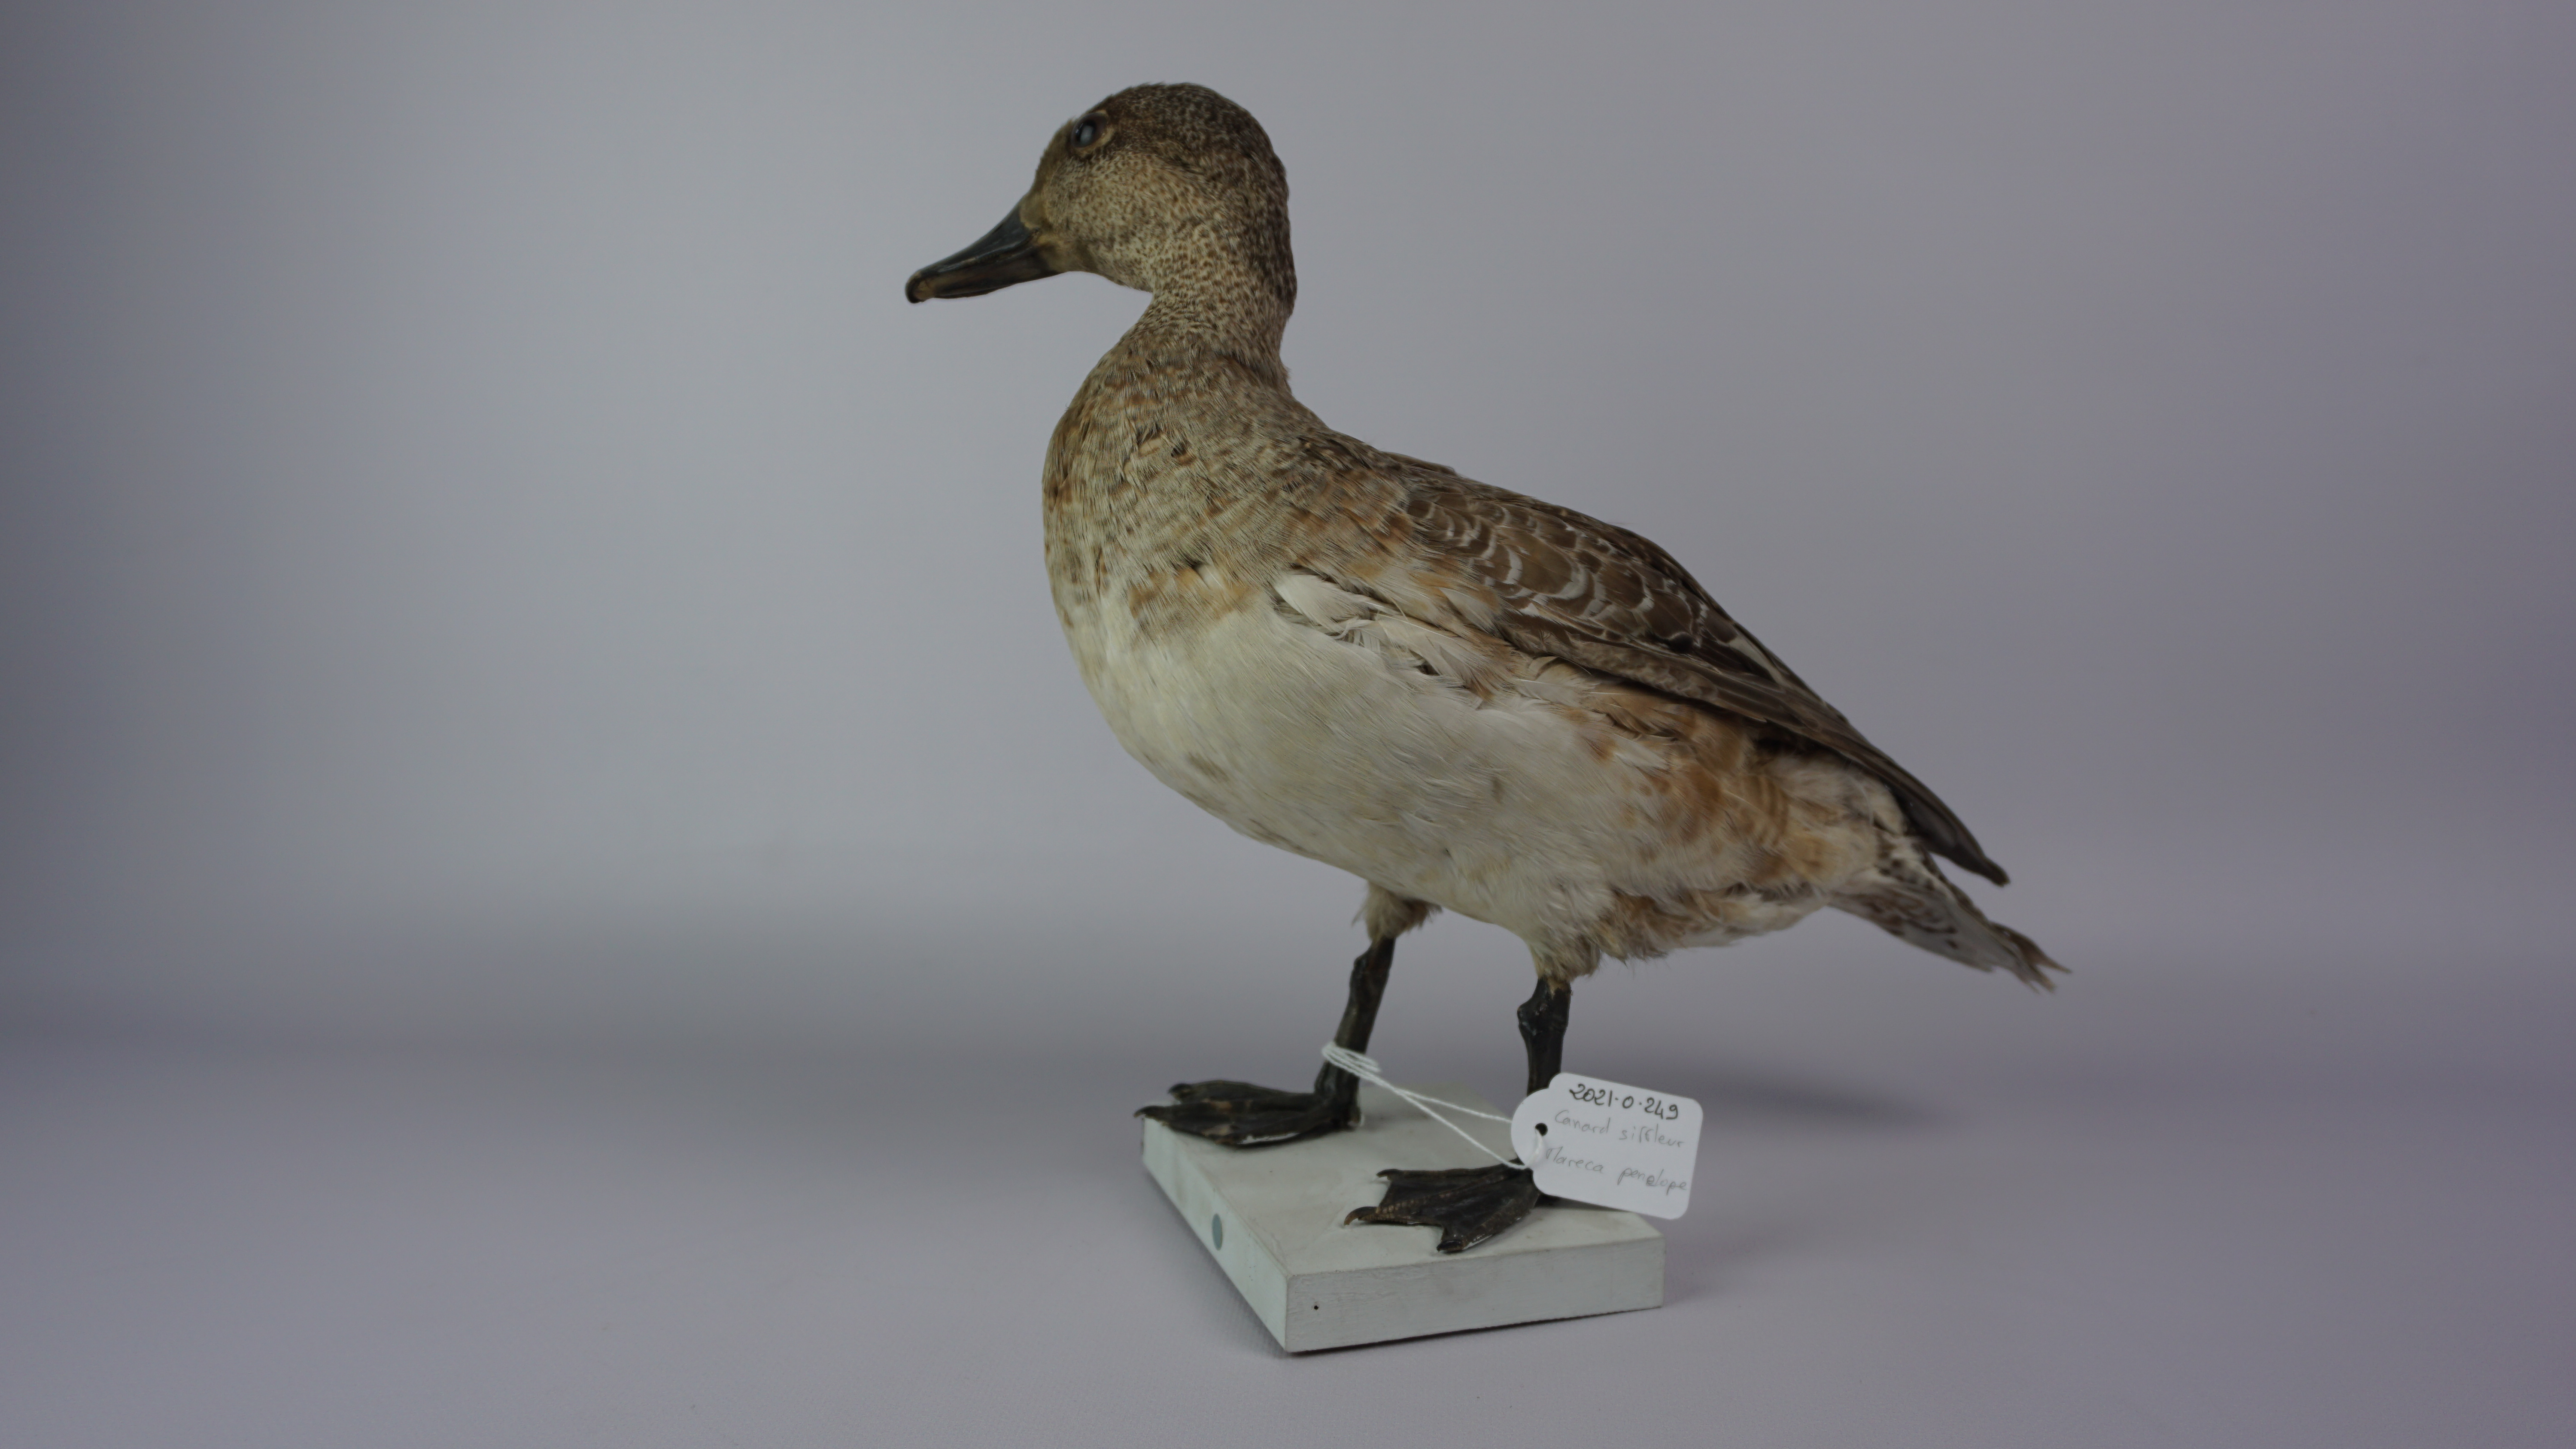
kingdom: Animalia
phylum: Chordata
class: Aves
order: Anseriformes
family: Anatidae
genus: Mareca
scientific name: Mareca penelope
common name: Eurasian wigeon
